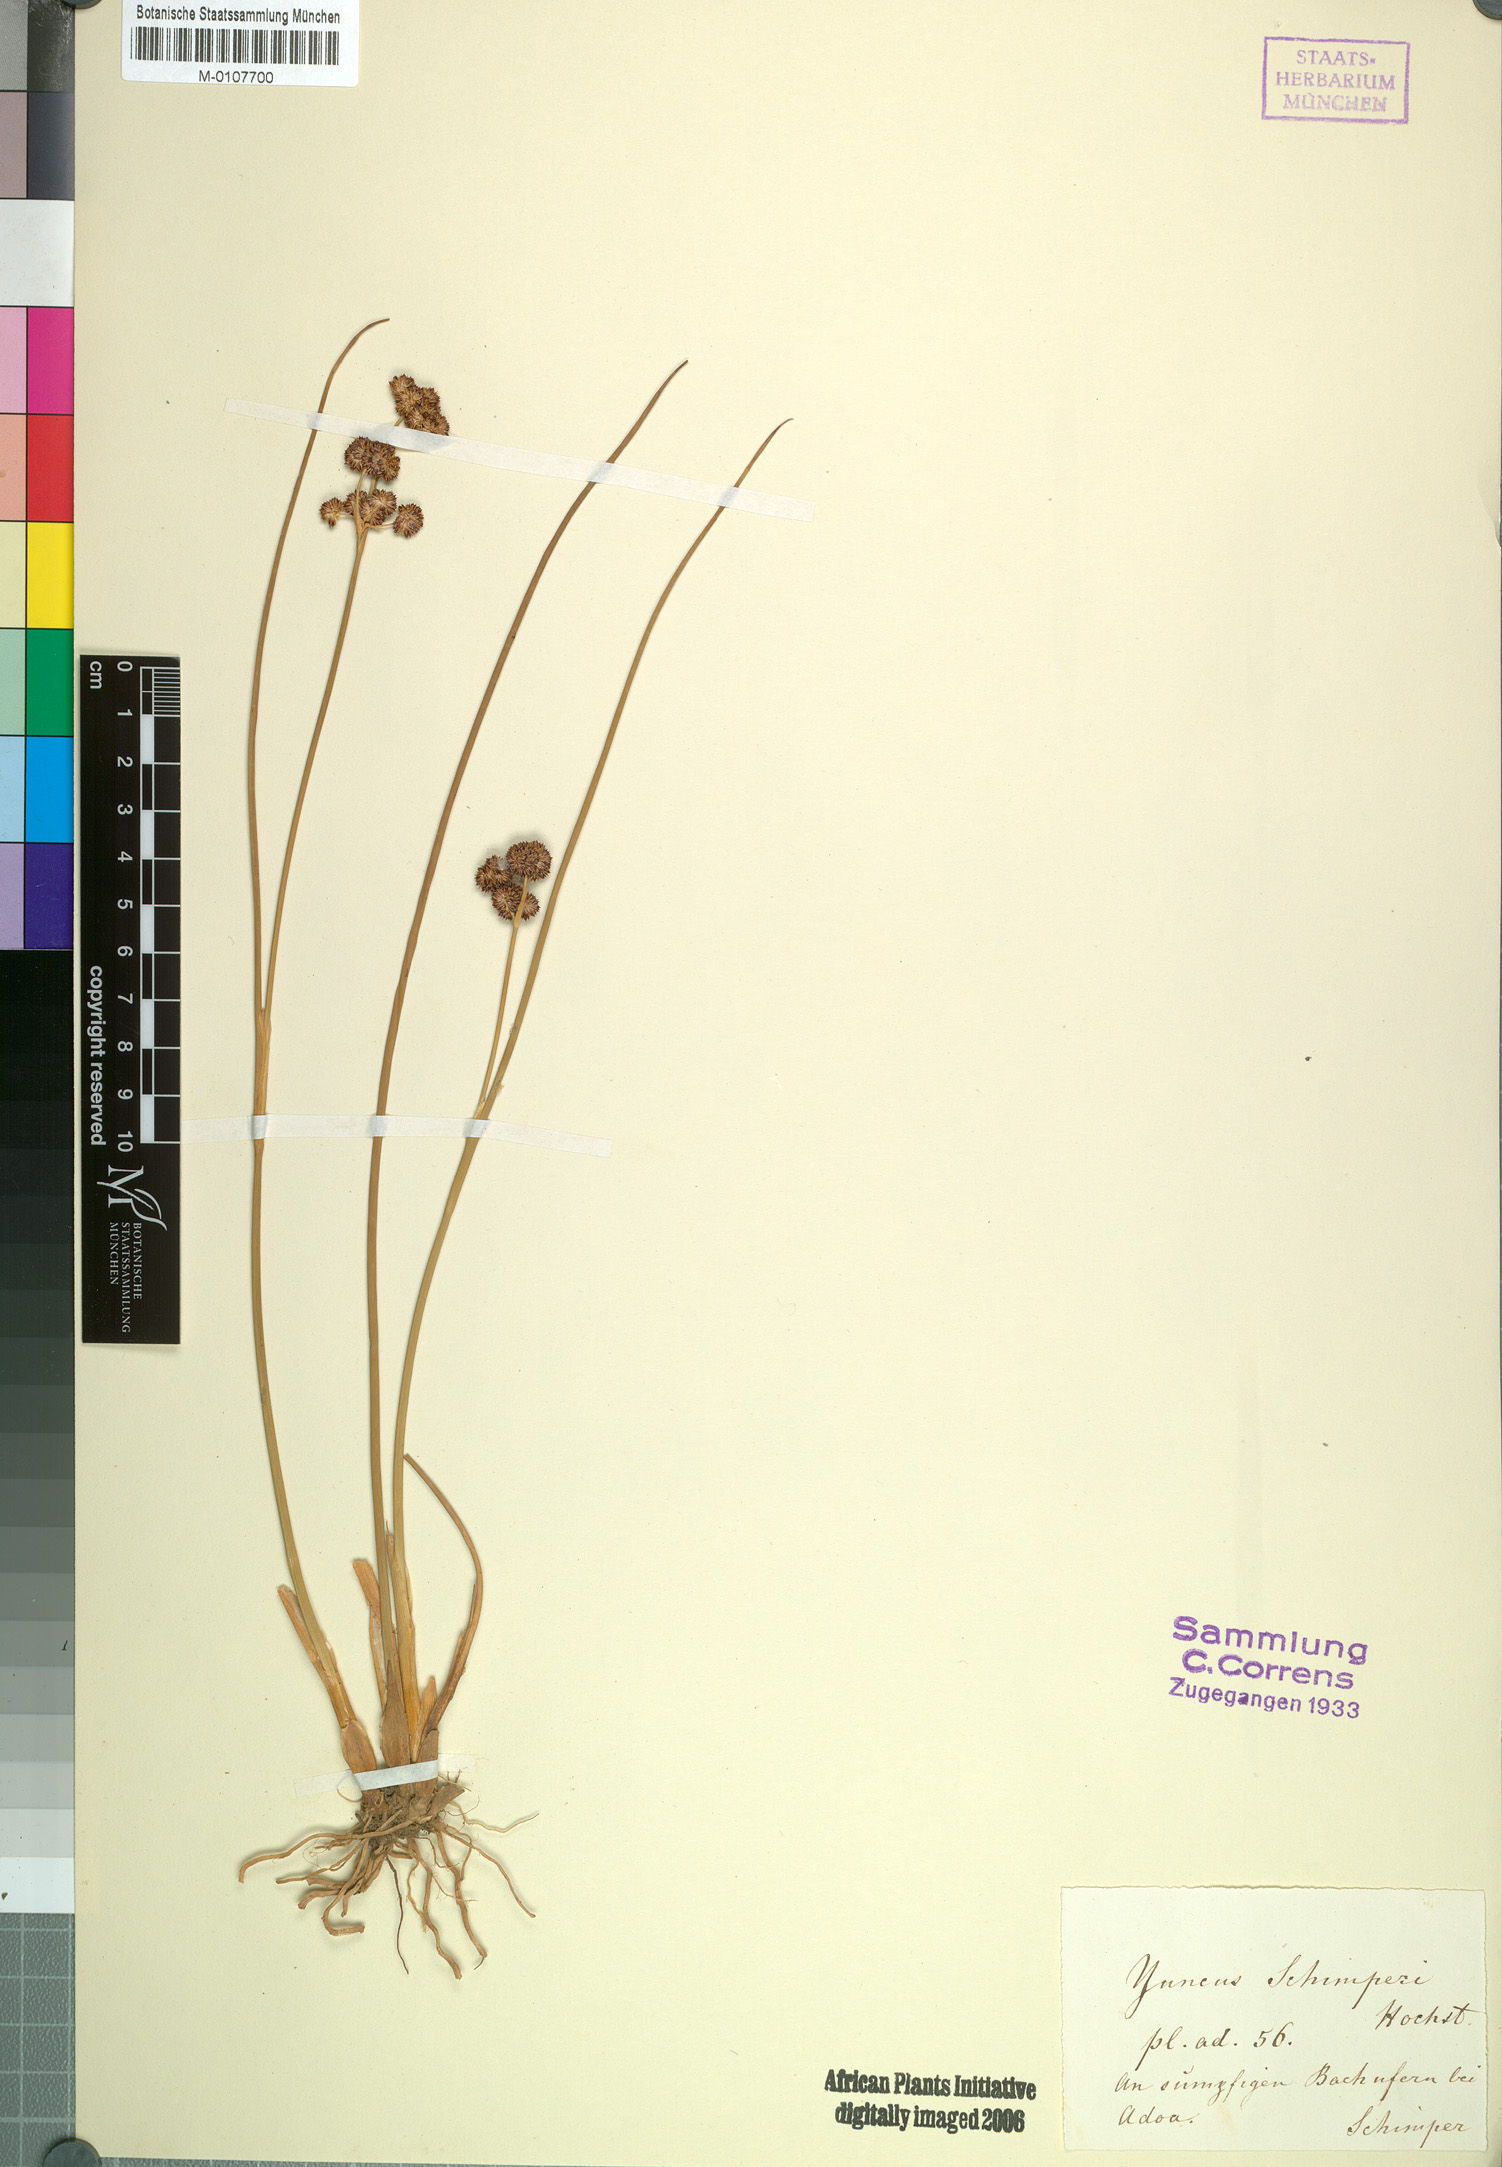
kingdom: Plantae
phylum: Tracheophyta
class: Liliopsida
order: Poales
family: Juncaceae
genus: Juncus
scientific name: Juncus punctorius
